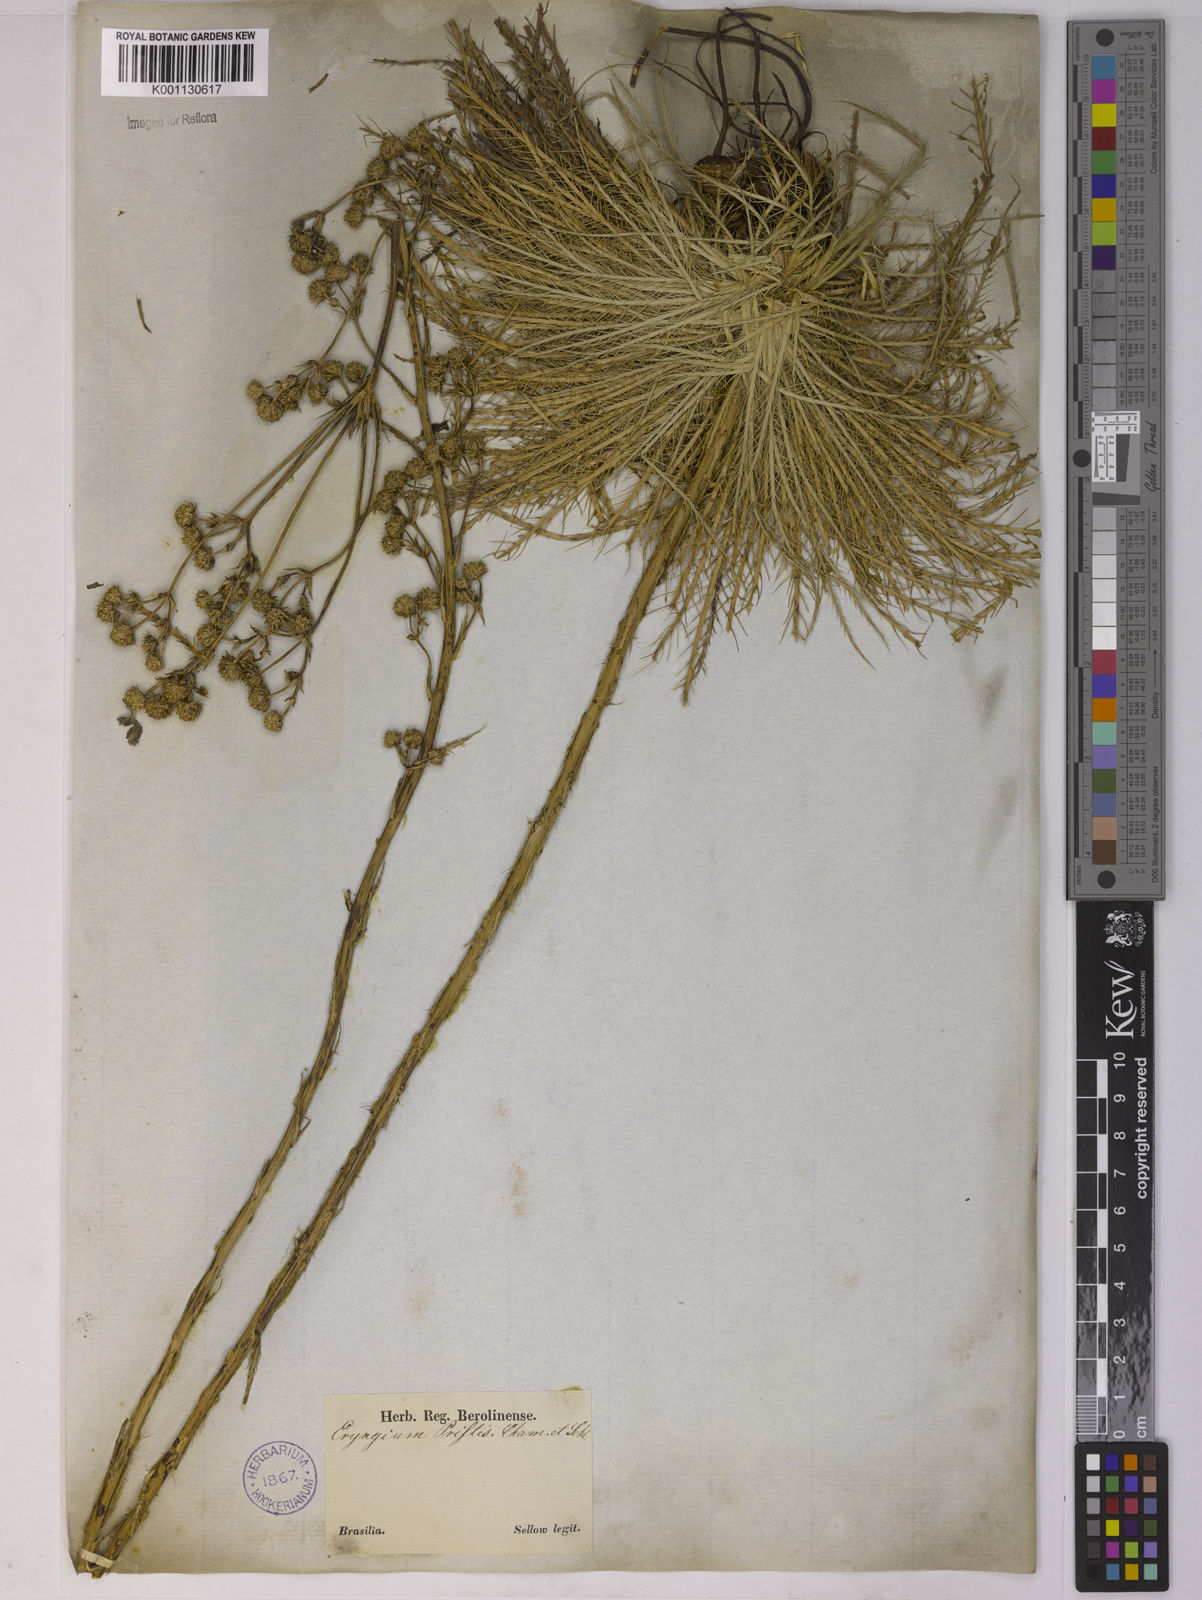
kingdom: Plantae
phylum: Tracheophyta
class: Magnoliopsida
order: Apiales
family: Apiaceae
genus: Eryngium
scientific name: Eryngium pristis
